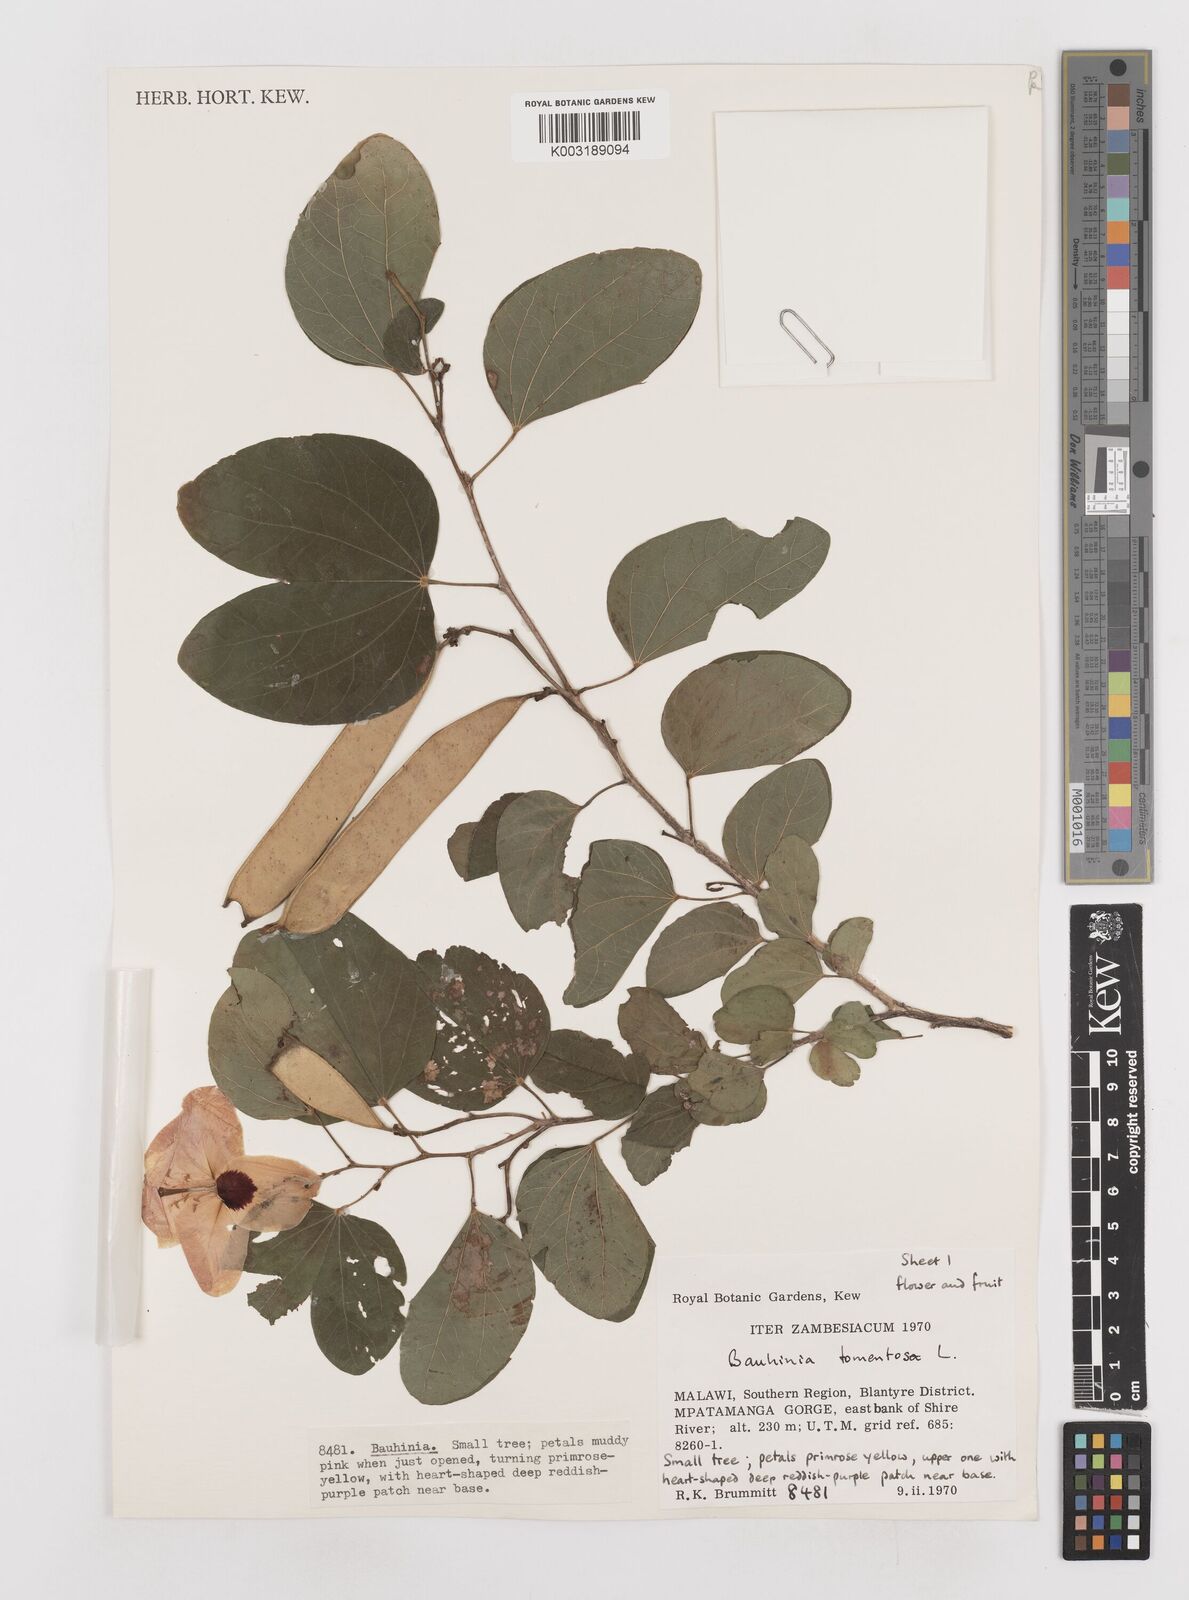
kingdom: Plantae
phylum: Tracheophyta
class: Magnoliopsida
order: Fabales
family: Fabaceae
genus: Bauhinia
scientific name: Bauhinia tomentosa
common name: Bell bauhinia
